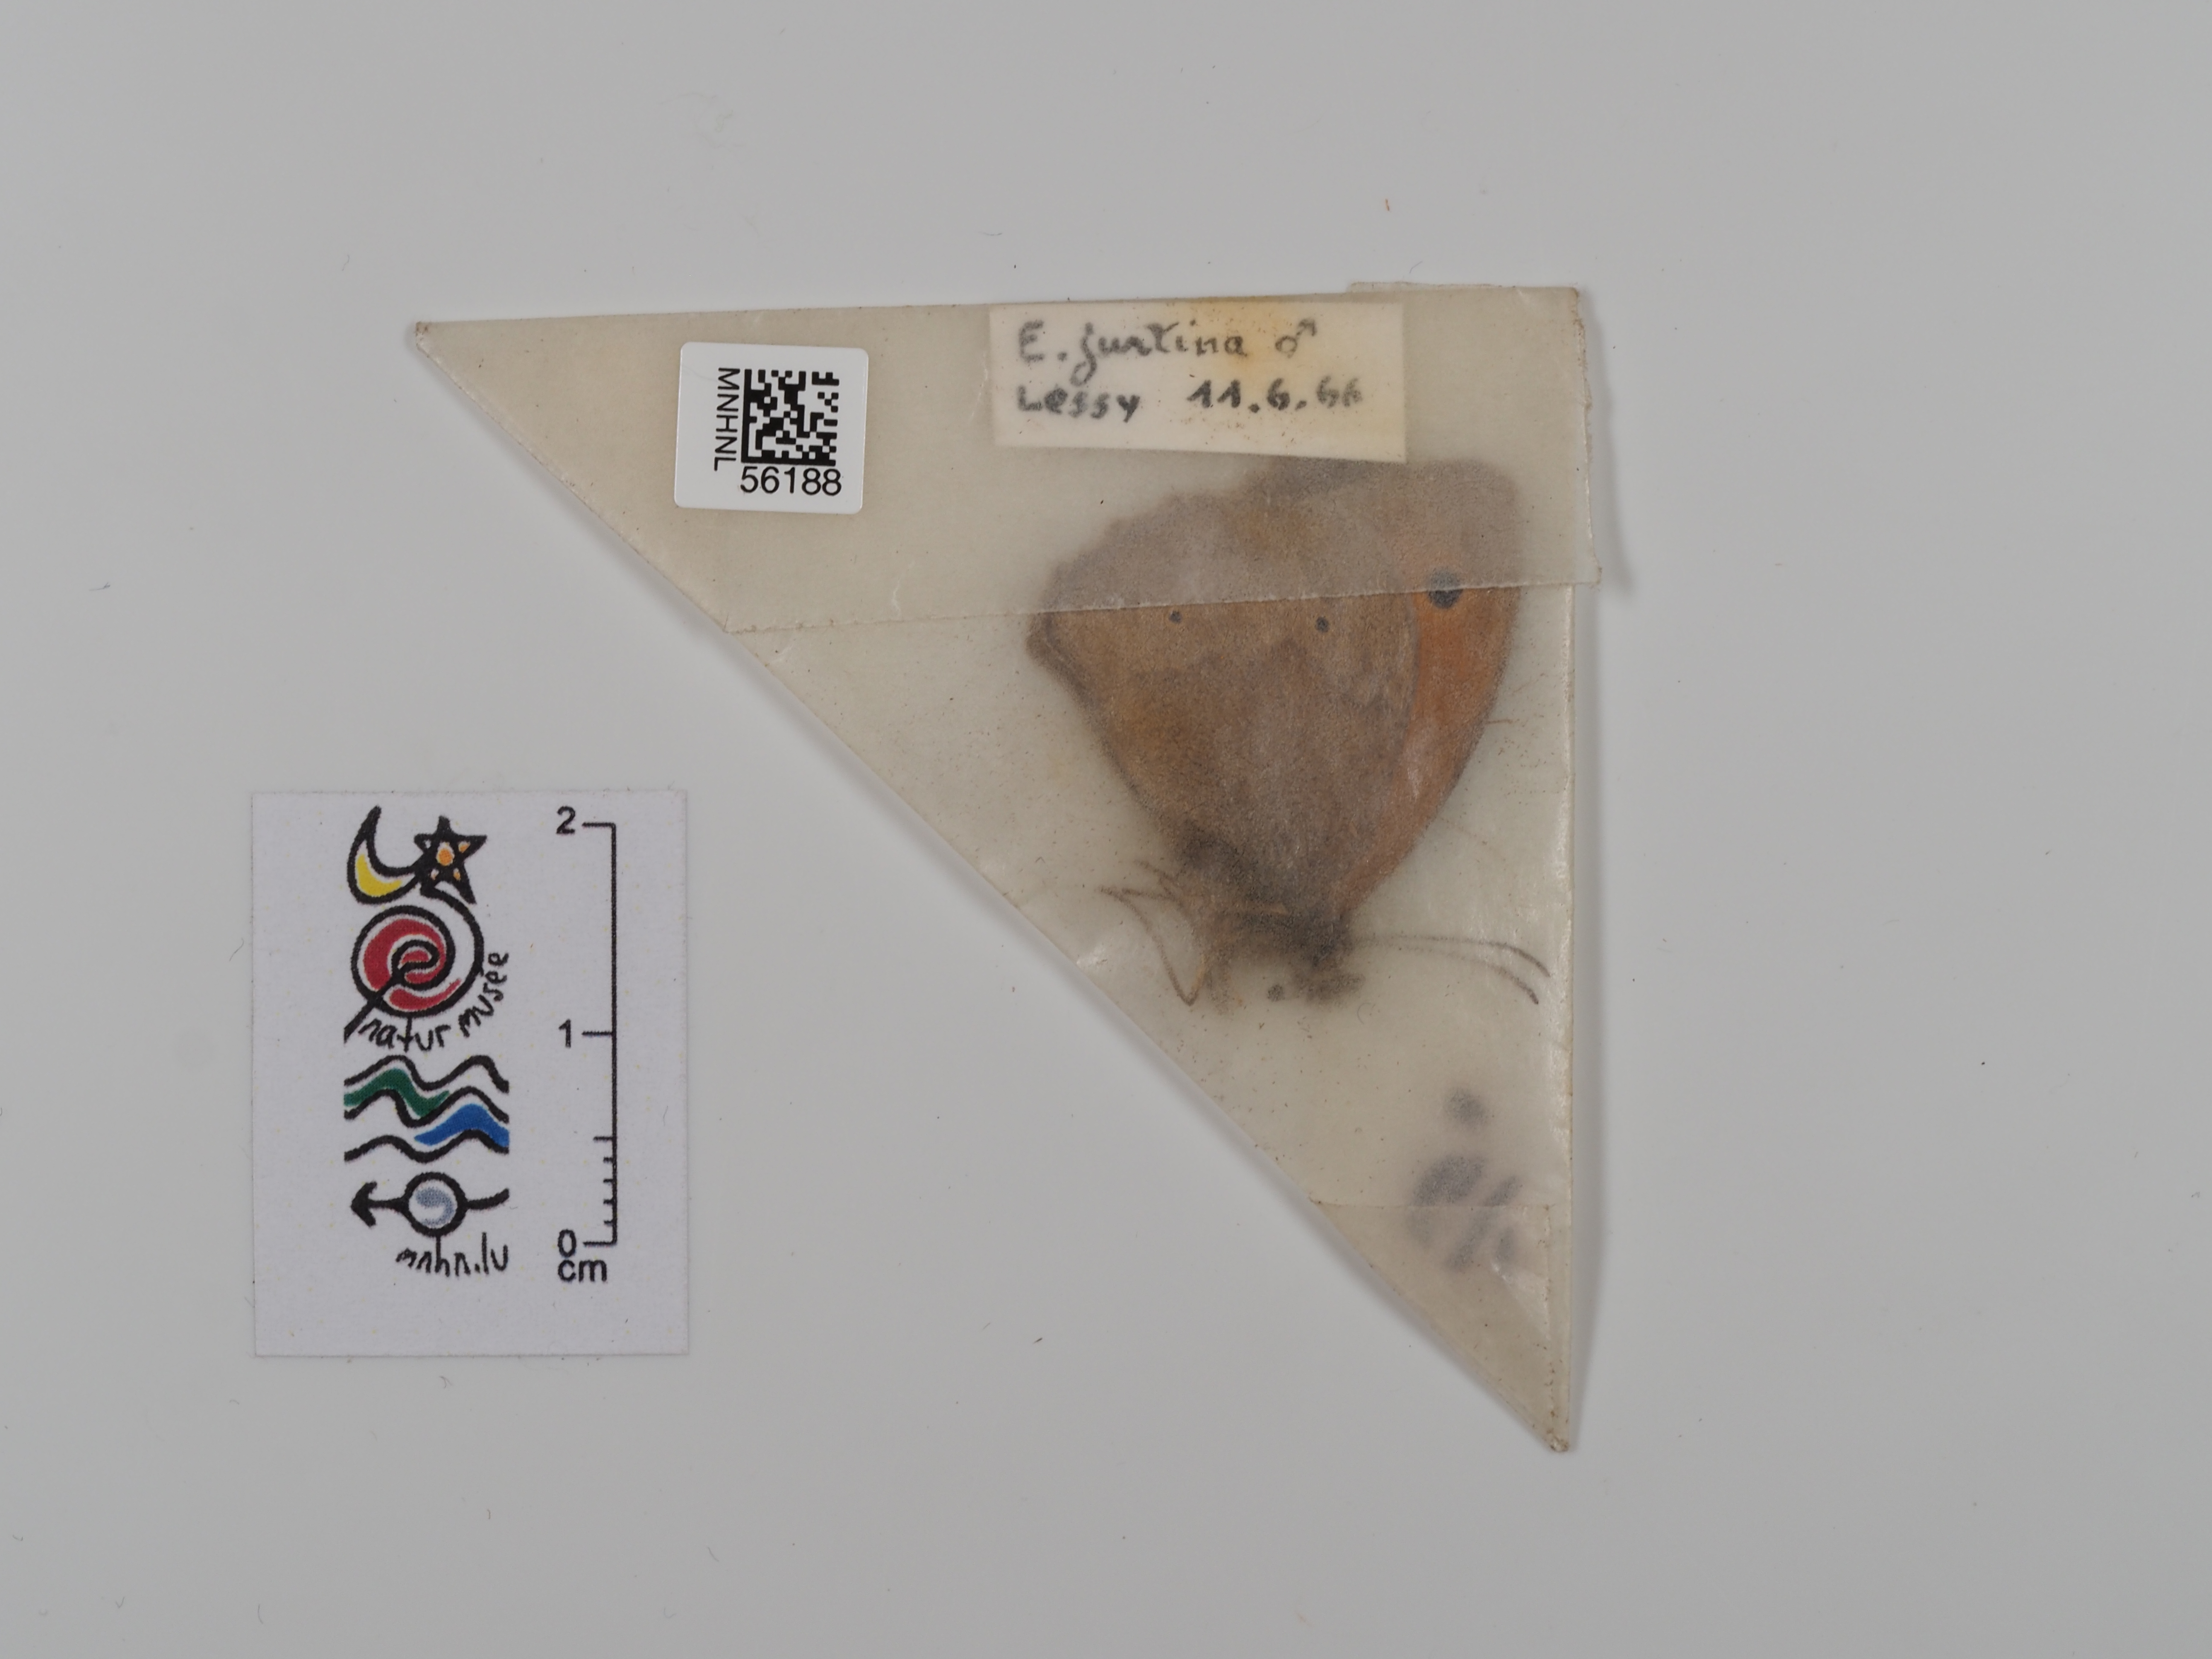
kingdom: Animalia
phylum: Arthropoda
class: Insecta
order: Lepidoptera
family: Nymphalidae
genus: Maniola
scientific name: Maniola jurtina
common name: Meadow brown
